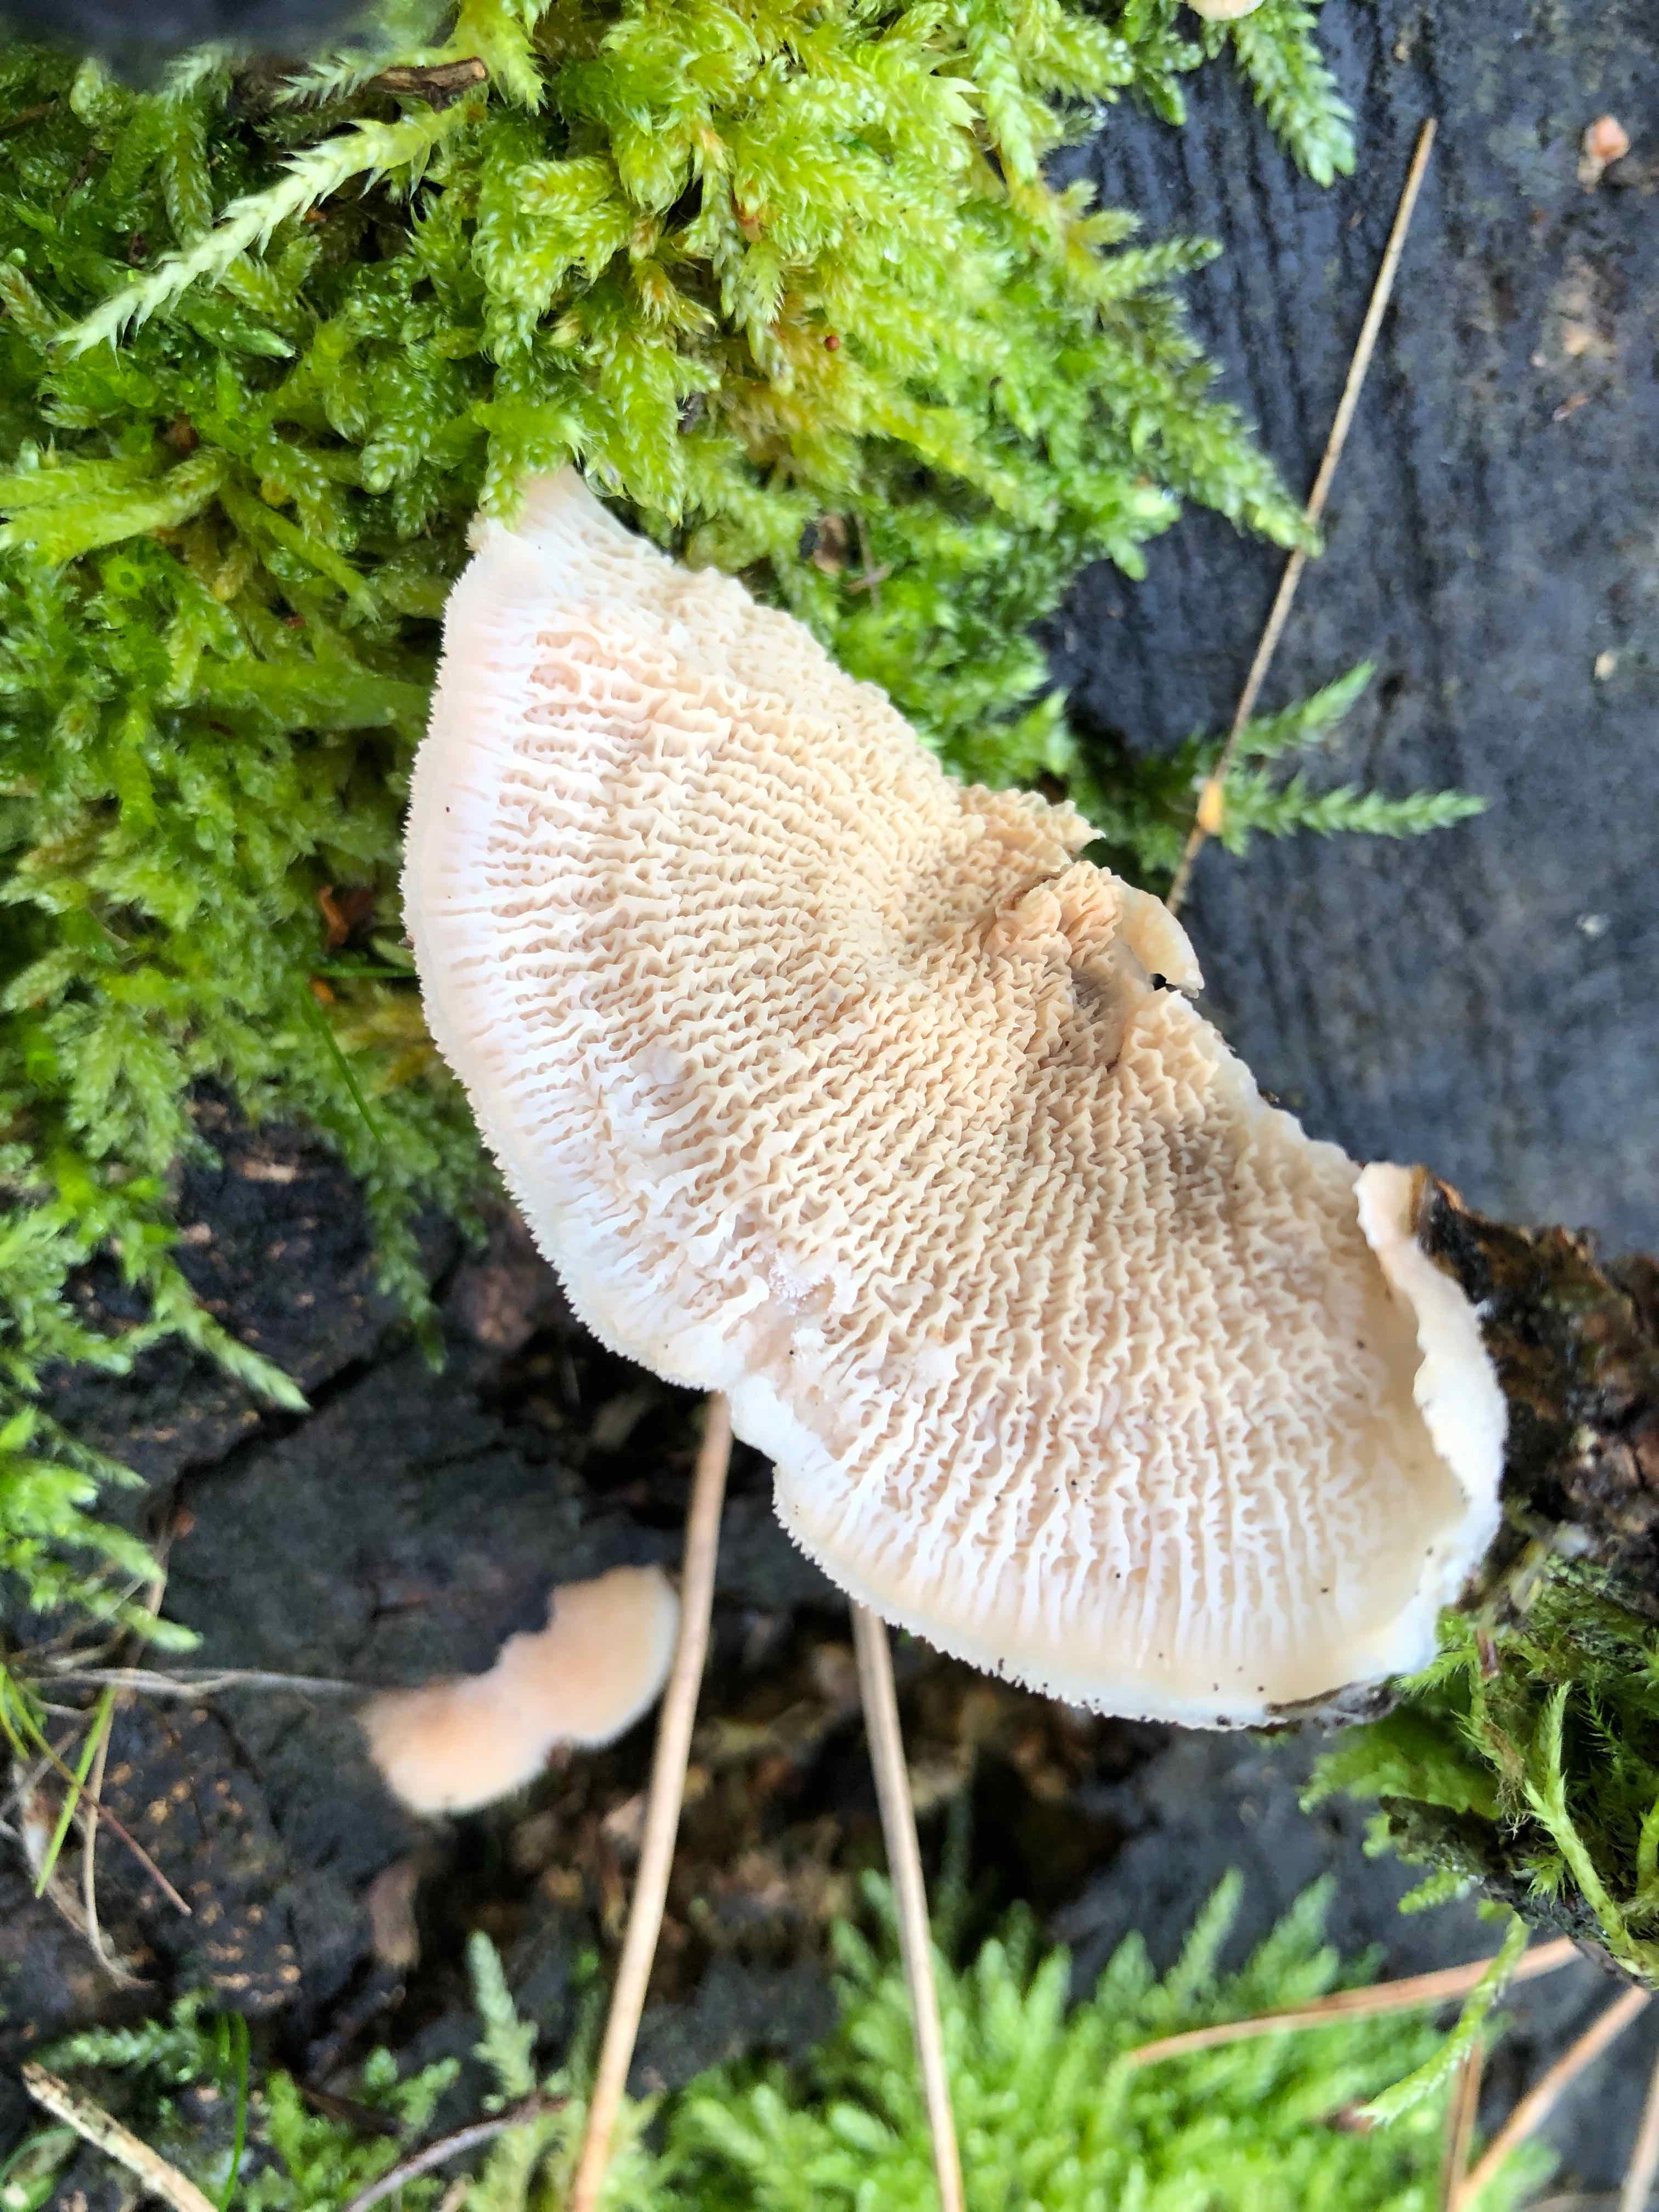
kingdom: Fungi
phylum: Basidiomycota
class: Agaricomycetes
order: Polyporales
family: Meruliaceae
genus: Phlebia
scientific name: Phlebia tremellosa
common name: bævrende åresvamp
